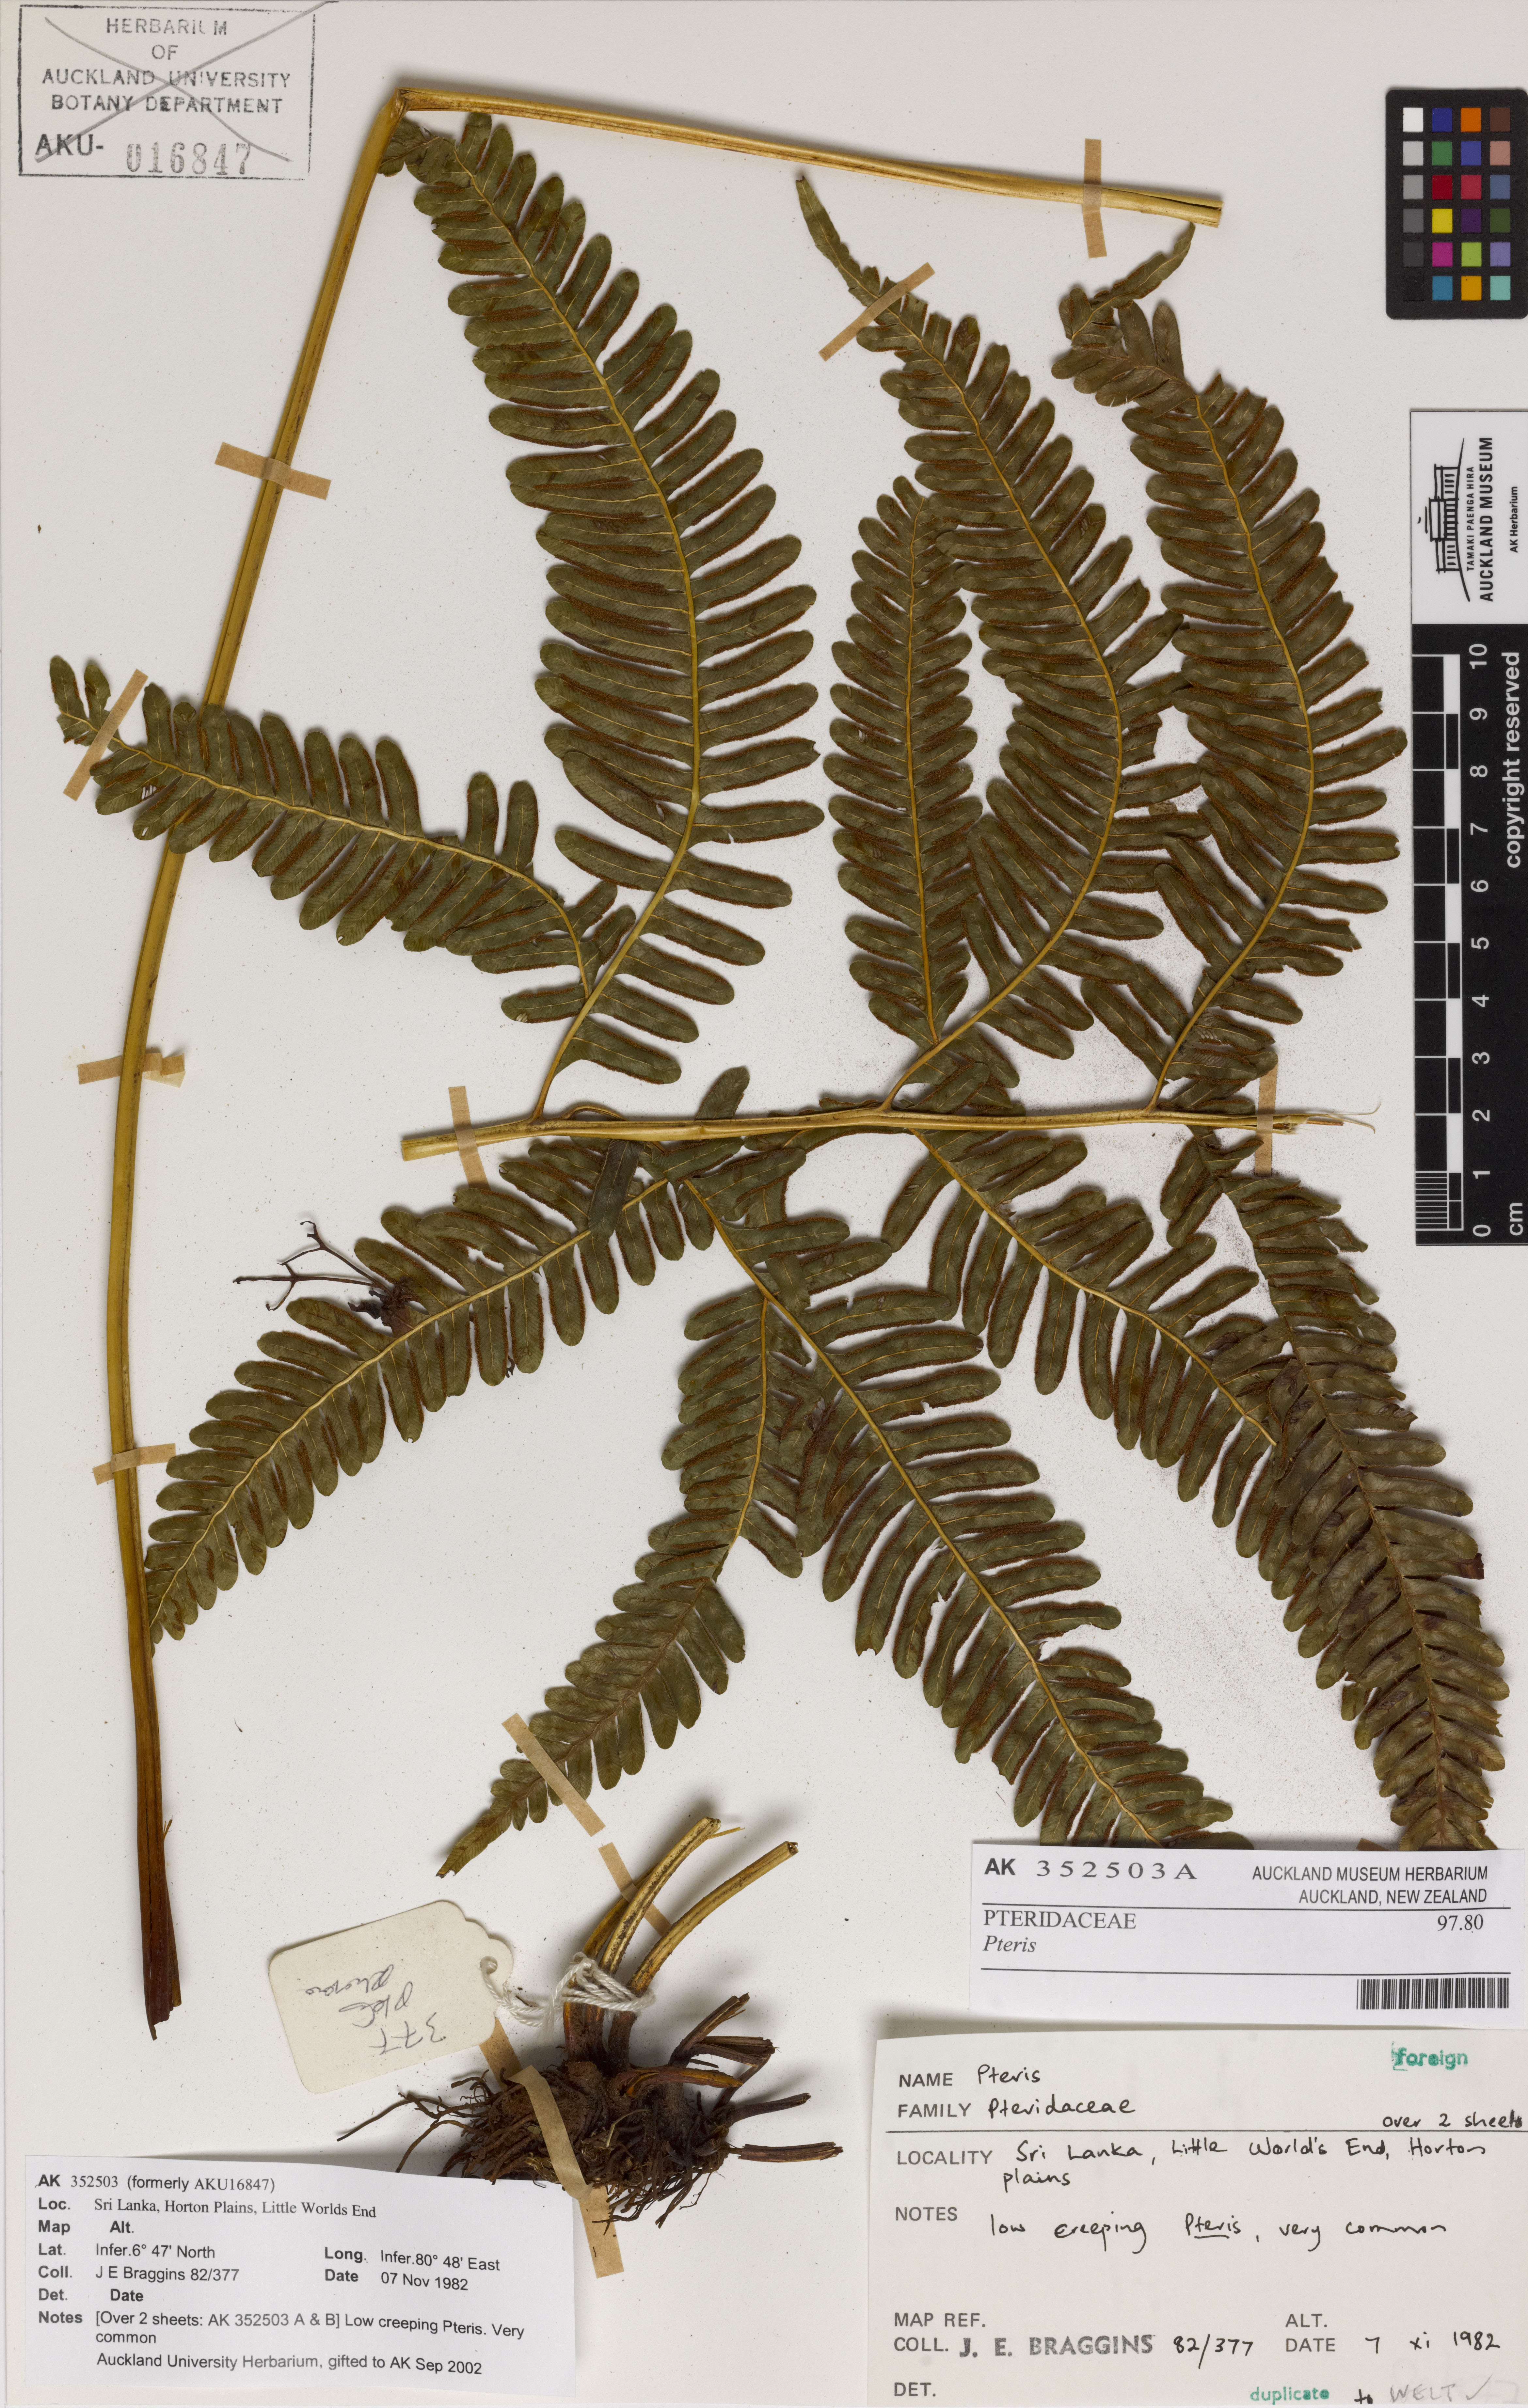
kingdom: Plantae
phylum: Tracheophyta
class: Polypodiopsida
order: Polypodiales
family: Pteridaceae
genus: Pteris
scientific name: Pteris
